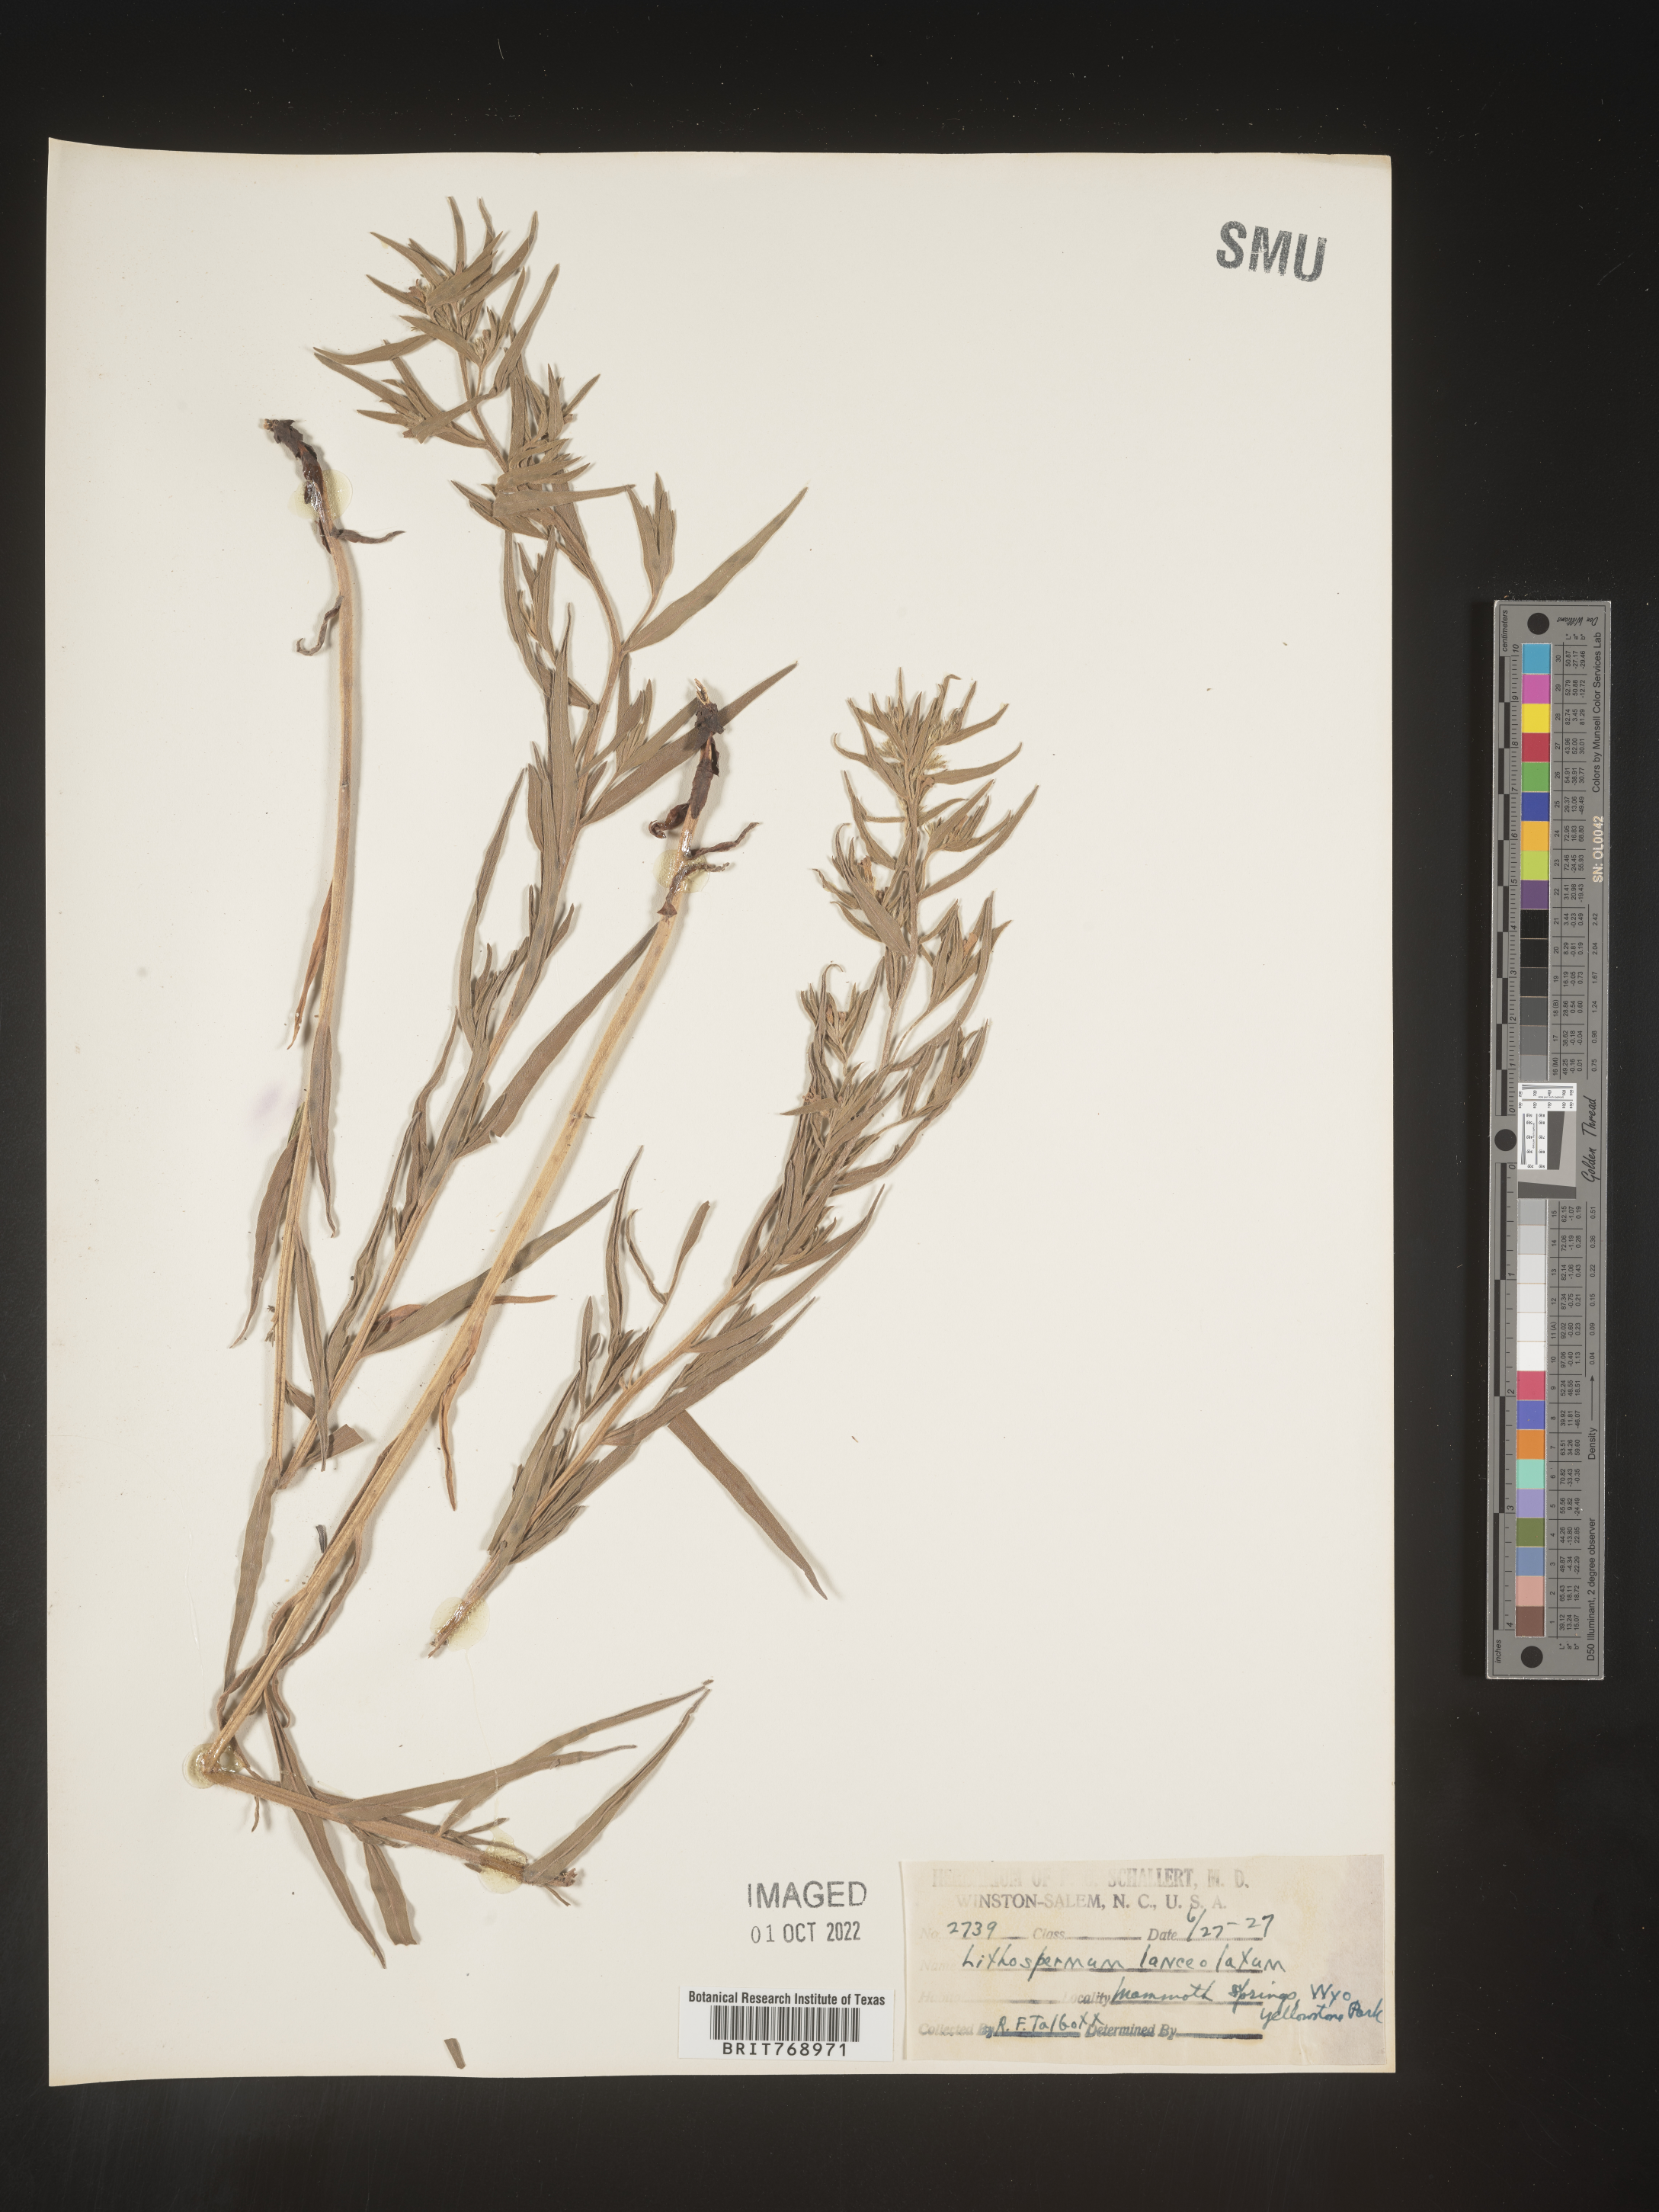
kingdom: Plantae
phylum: Tracheophyta
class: Magnoliopsida
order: Boraginales
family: Boraginaceae
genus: Lithospermum
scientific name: Lithospermum incisum
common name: Fringed gromwell
